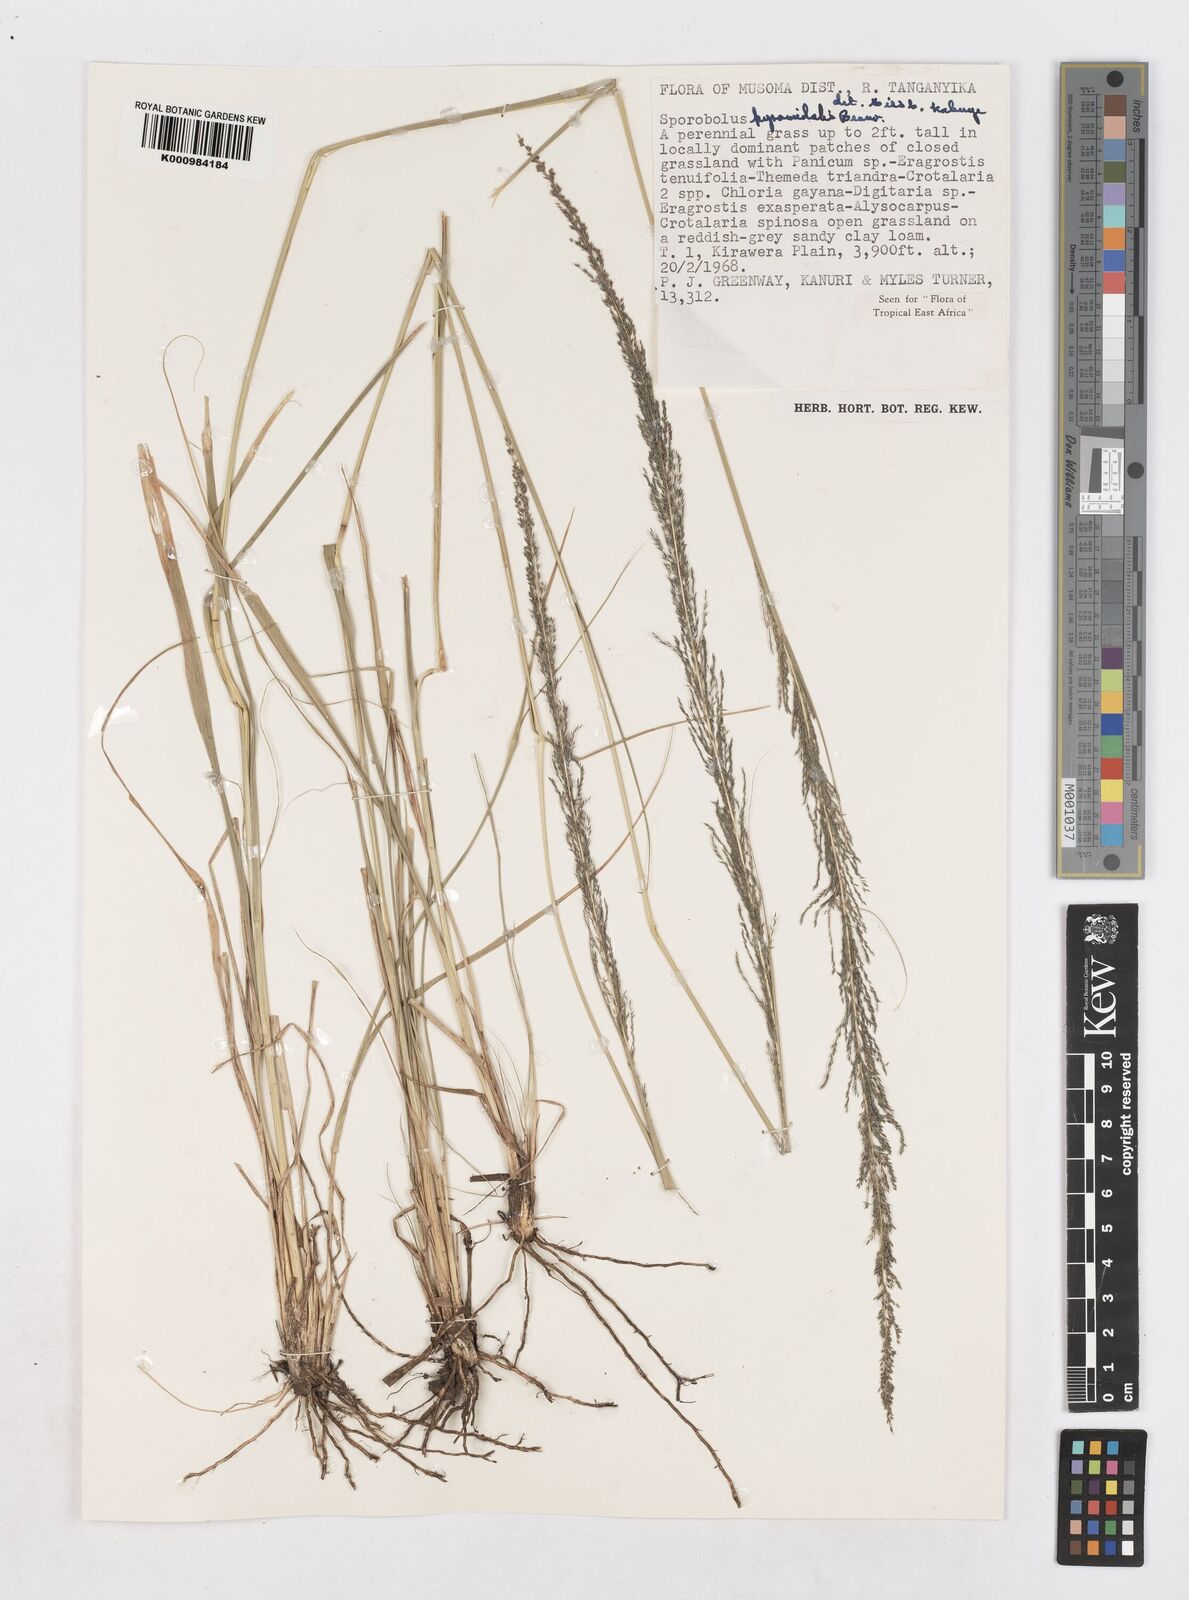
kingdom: Plantae
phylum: Tracheophyta
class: Liliopsida
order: Poales
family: Poaceae
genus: Sporobolus
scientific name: Sporobolus pyramidalis
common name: West indian dropseed
